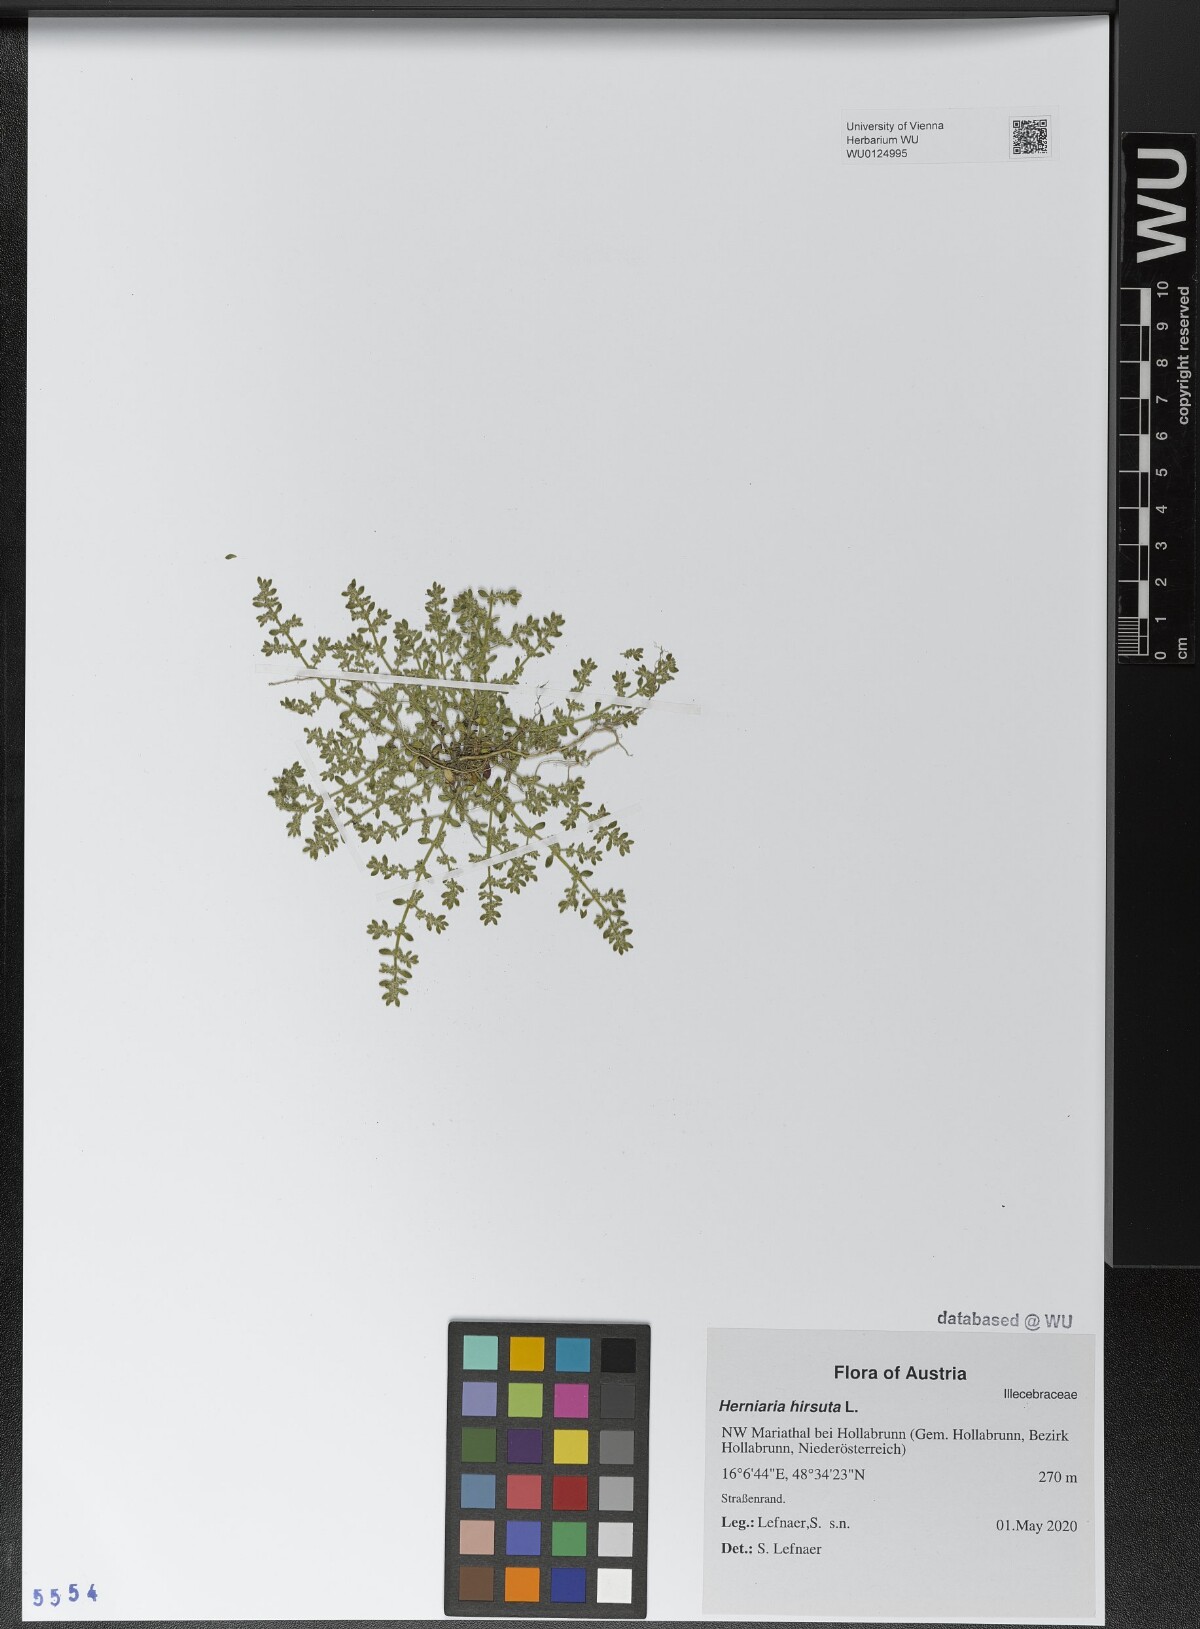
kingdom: Plantae
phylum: Tracheophyta
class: Magnoliopsida
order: Caryophyllales
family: Caryophyllaceae
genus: Herniaria
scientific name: Herniaria hirsuta
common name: Hairy rupturewort
